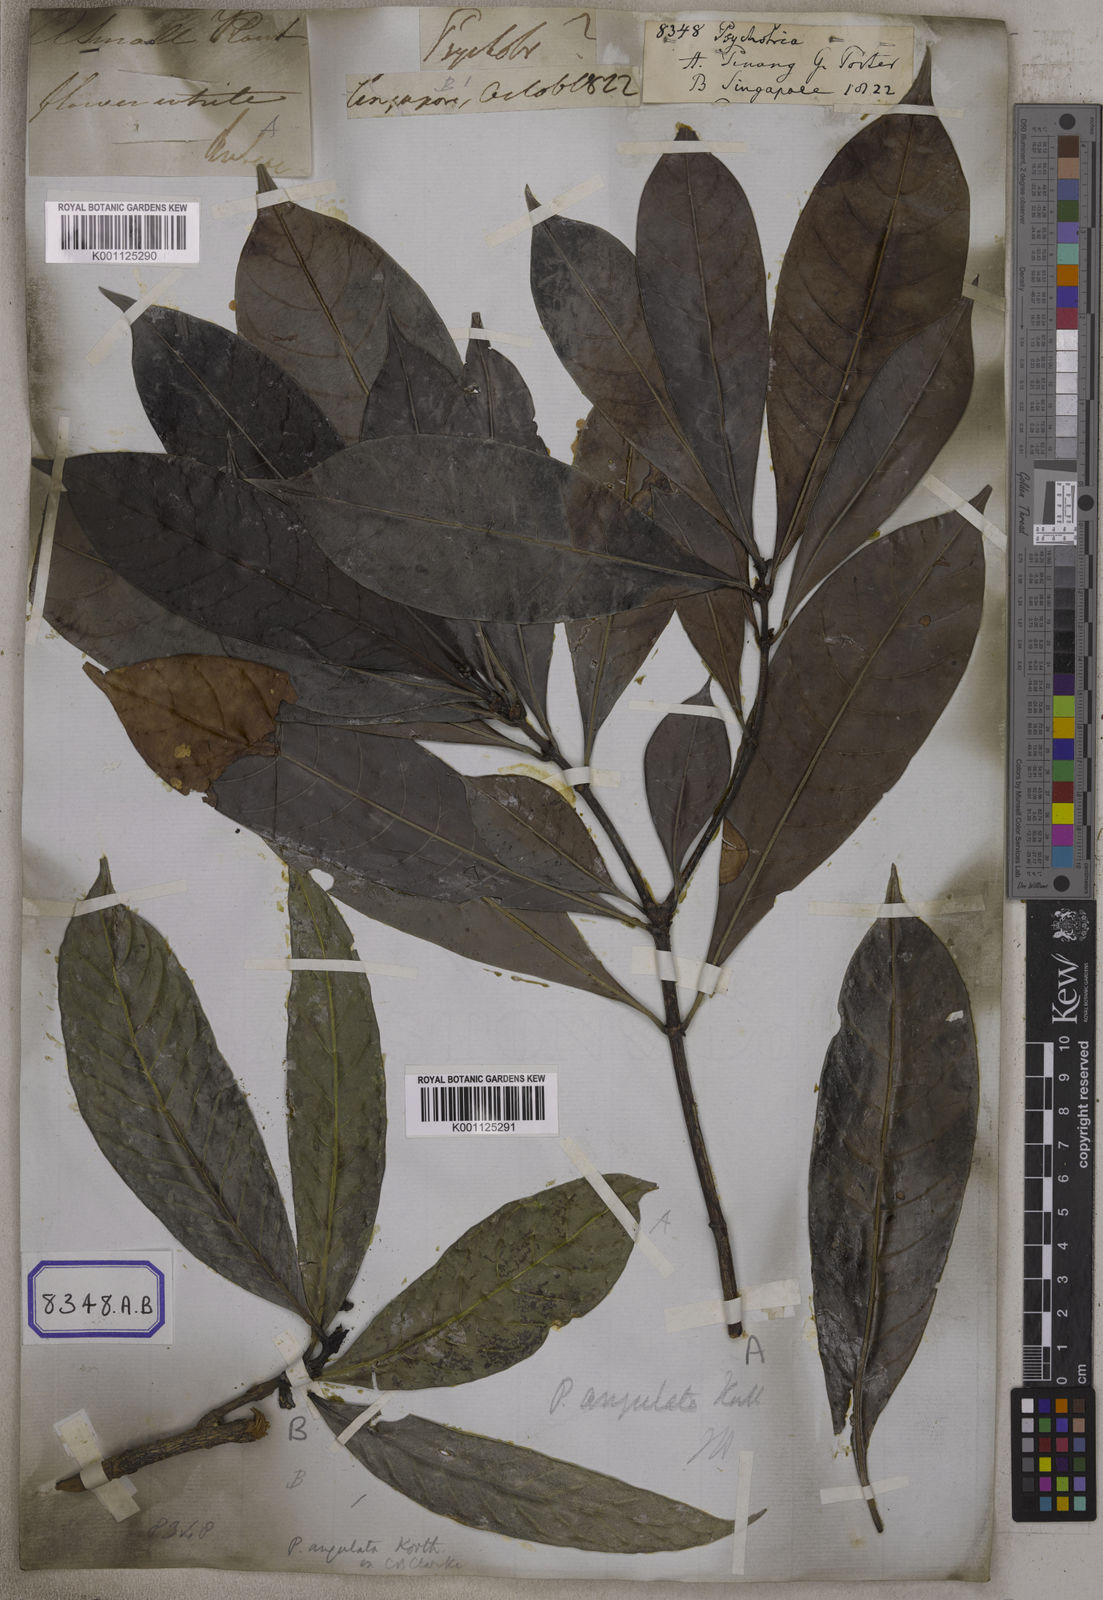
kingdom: Plantae
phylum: Tracheophyta
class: Magnoliopsida
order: Gentianales
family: Rubiaceae
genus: Psychotria
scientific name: Psychotria
